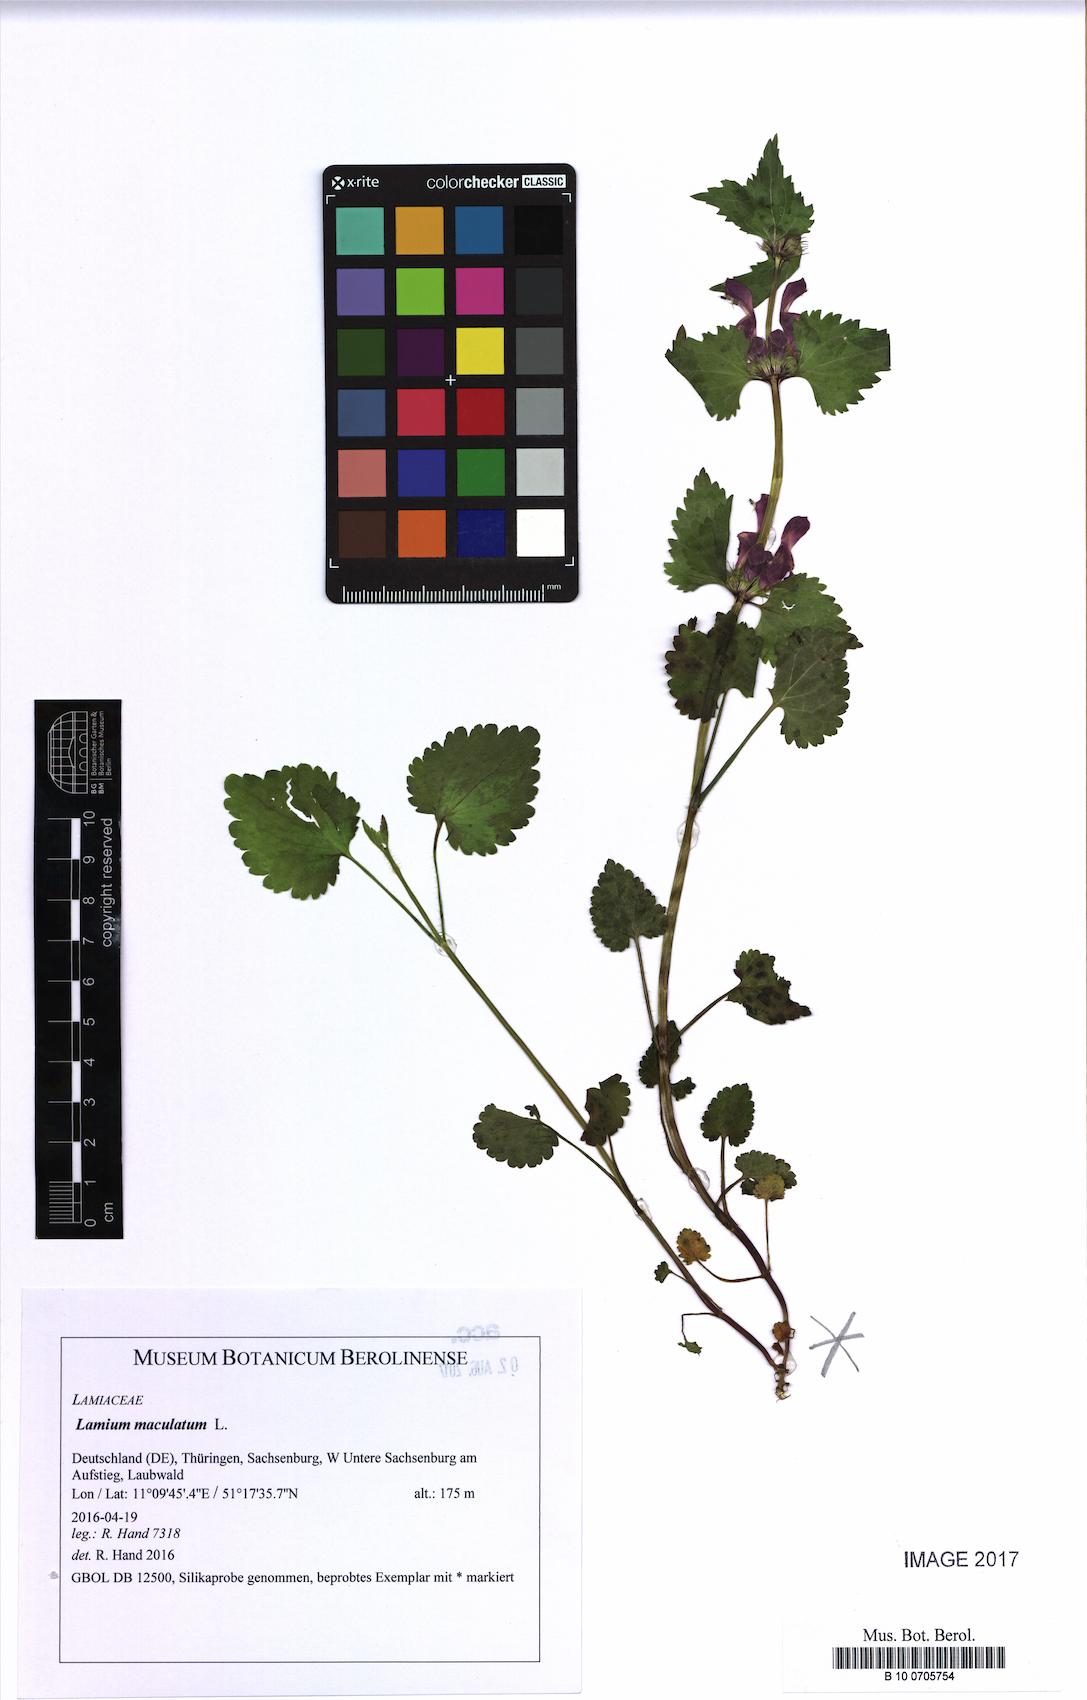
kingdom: Plantae
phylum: Tracheophyta
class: Magnoliopsida
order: Lamiales
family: Lamiaceae
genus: Lamium
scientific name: Lamium maculatum
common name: Spotted dead-nettle
